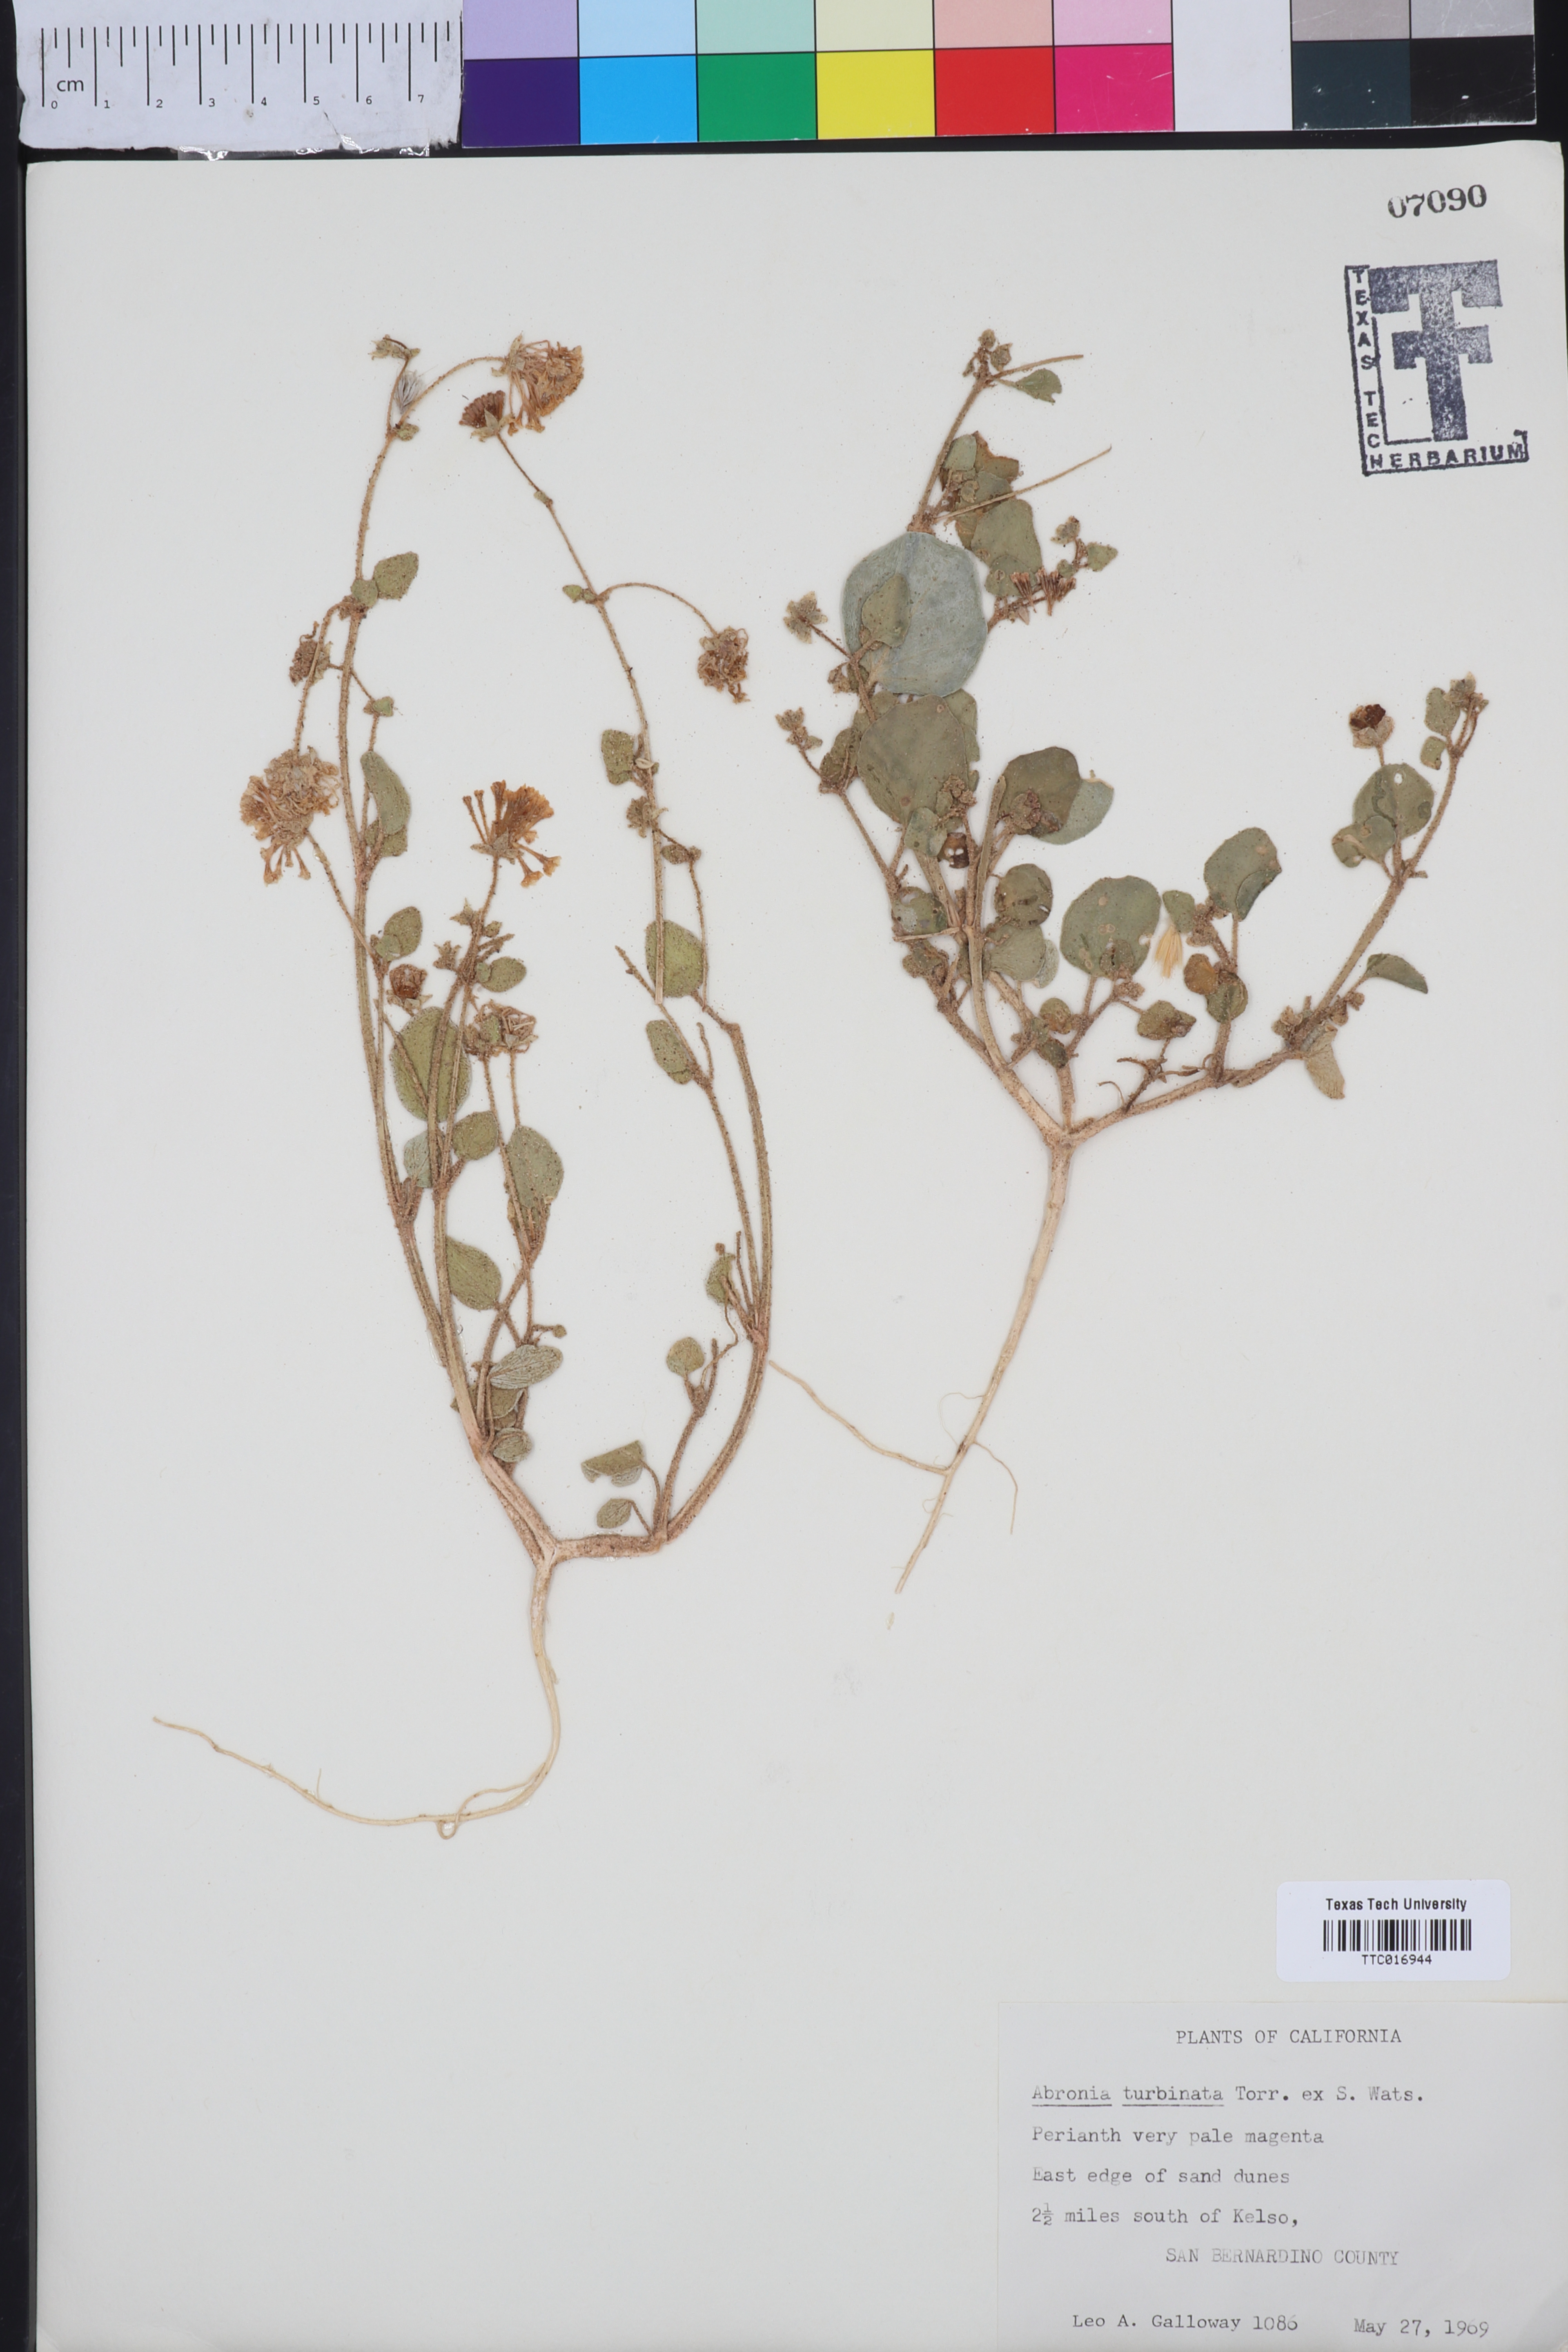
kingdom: Plantae
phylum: Tracheophyta
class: Magnoliopsida
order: Caryophyllales
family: Nyctaginaceae
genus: Abronia
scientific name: Abronia turbinata
